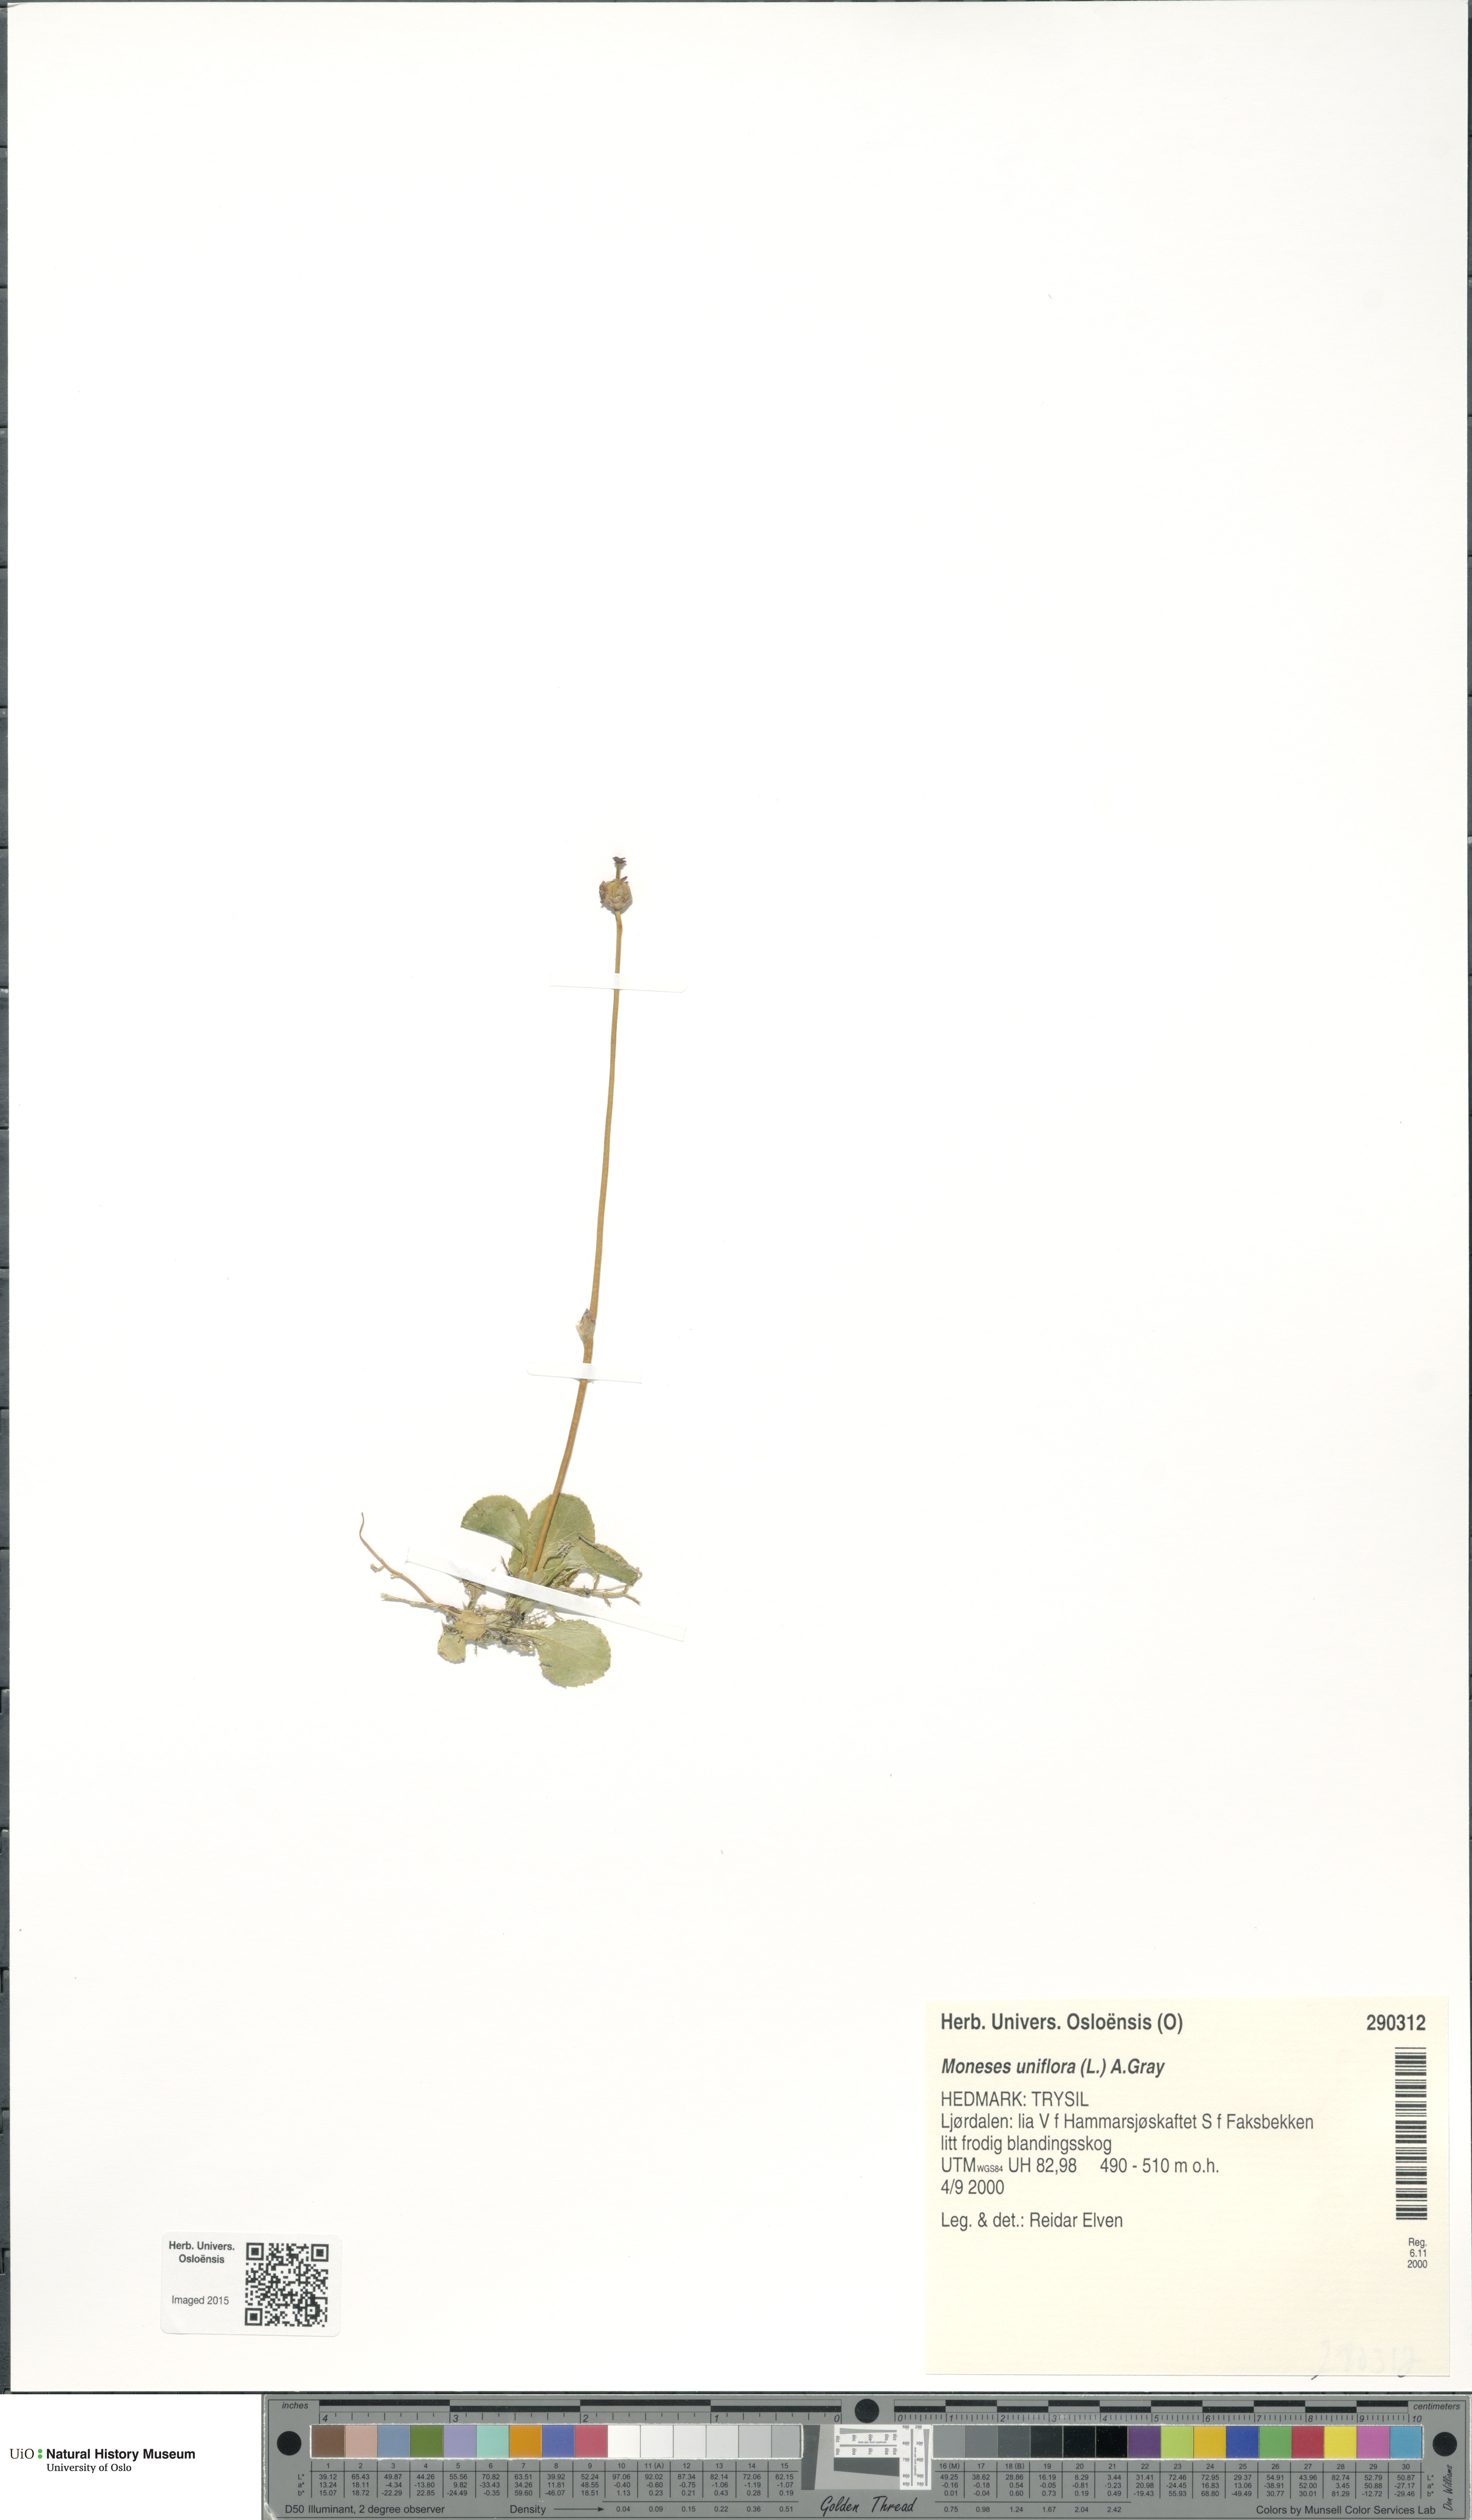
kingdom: Plantae
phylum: Tracheophyta
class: Magnoliopsida
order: Ericales
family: Ericaceae
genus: Moneses
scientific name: Moneses uniflora
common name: One-flowered wintergreen
